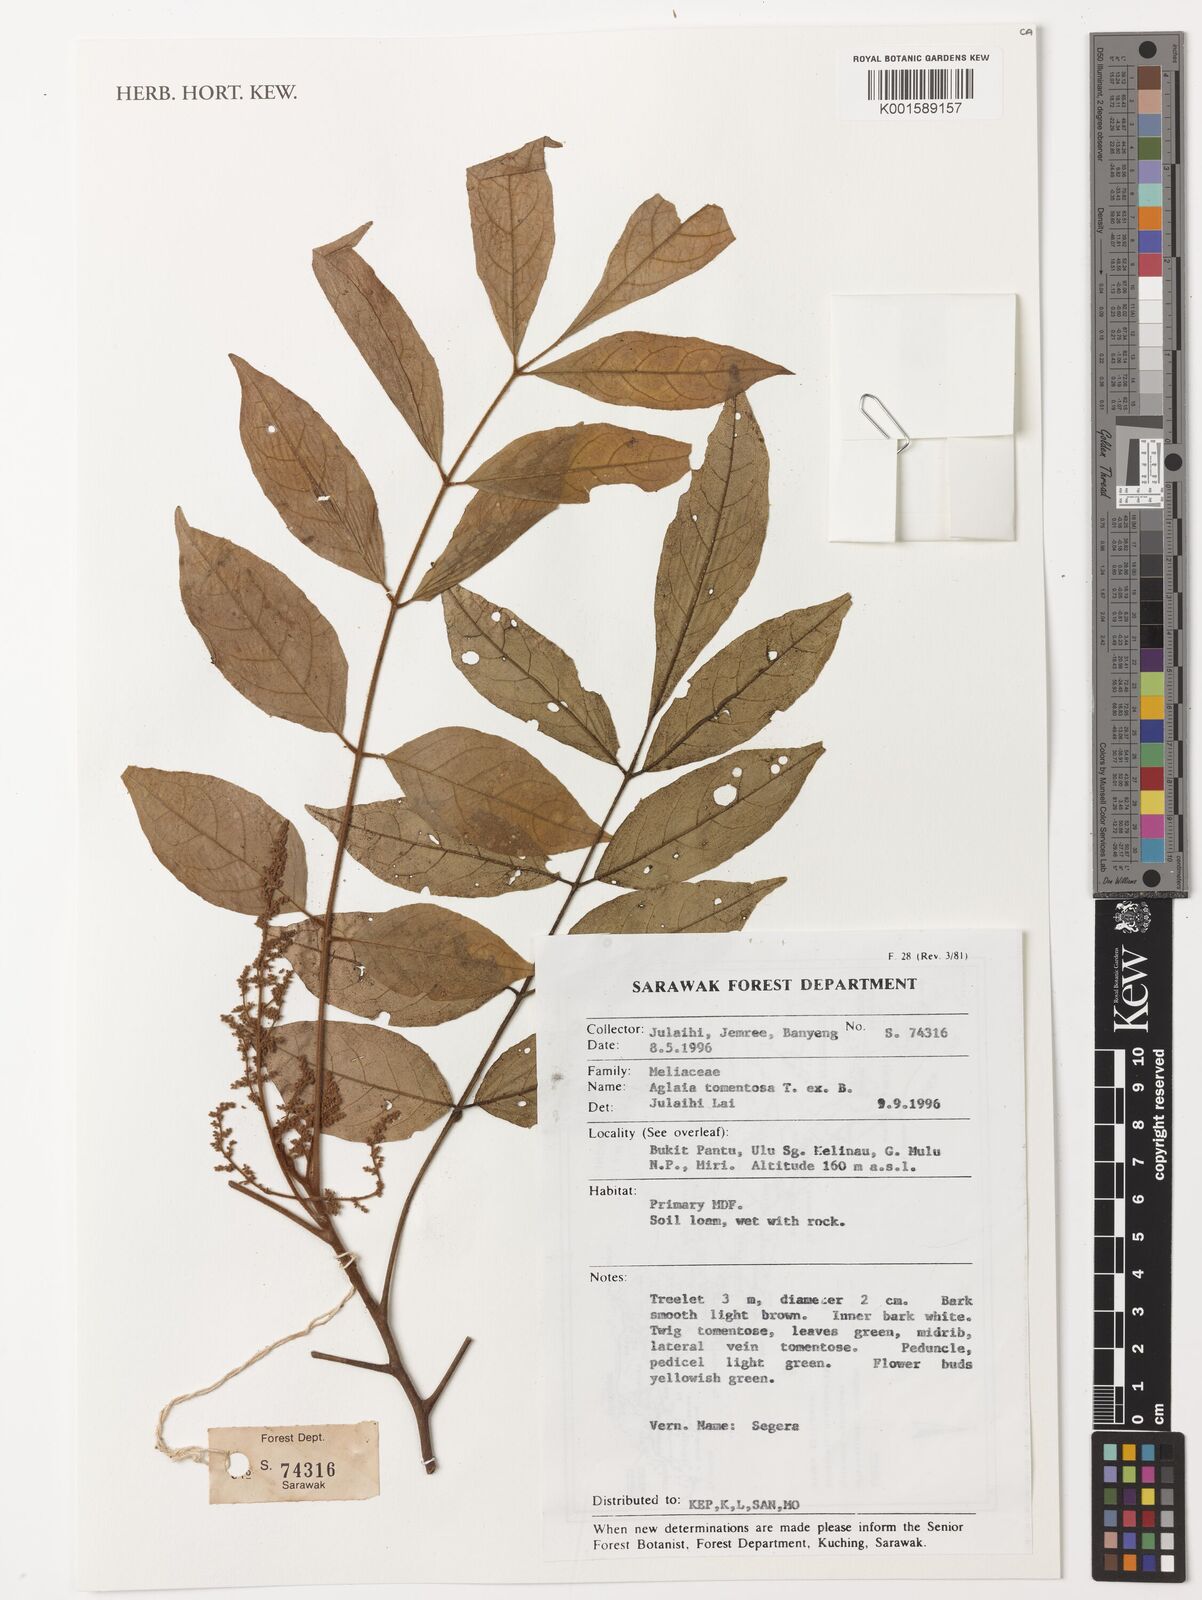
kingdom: Plantae
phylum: Tracheophyta
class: Magnoliopsida
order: Sapindales
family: Meliaceae
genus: Aglaia
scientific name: Aglaia tomentosa
